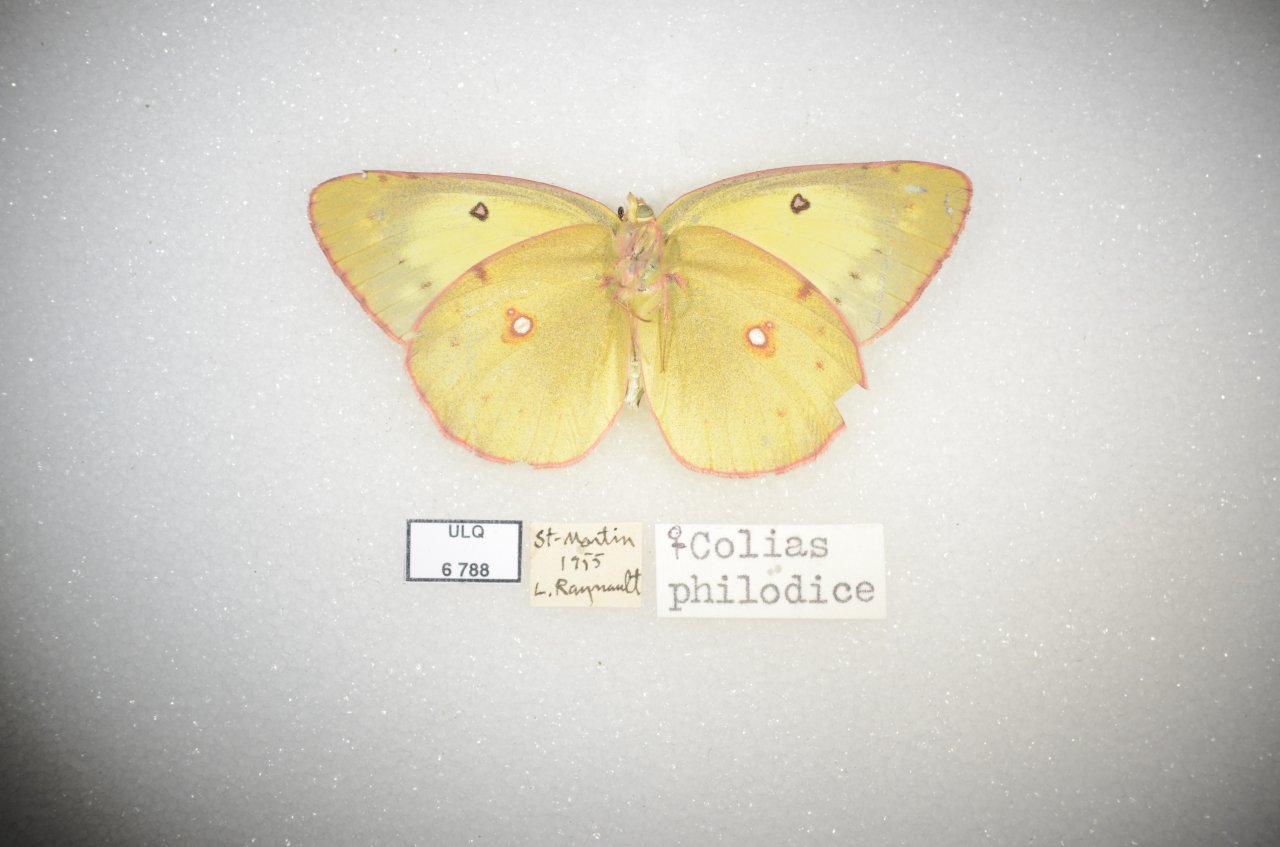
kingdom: Animalia
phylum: Arthropoda
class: Insecta
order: Lepidoptera
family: Pieridae
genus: Colias
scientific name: Colias philodice
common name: Clouded Sulphur
